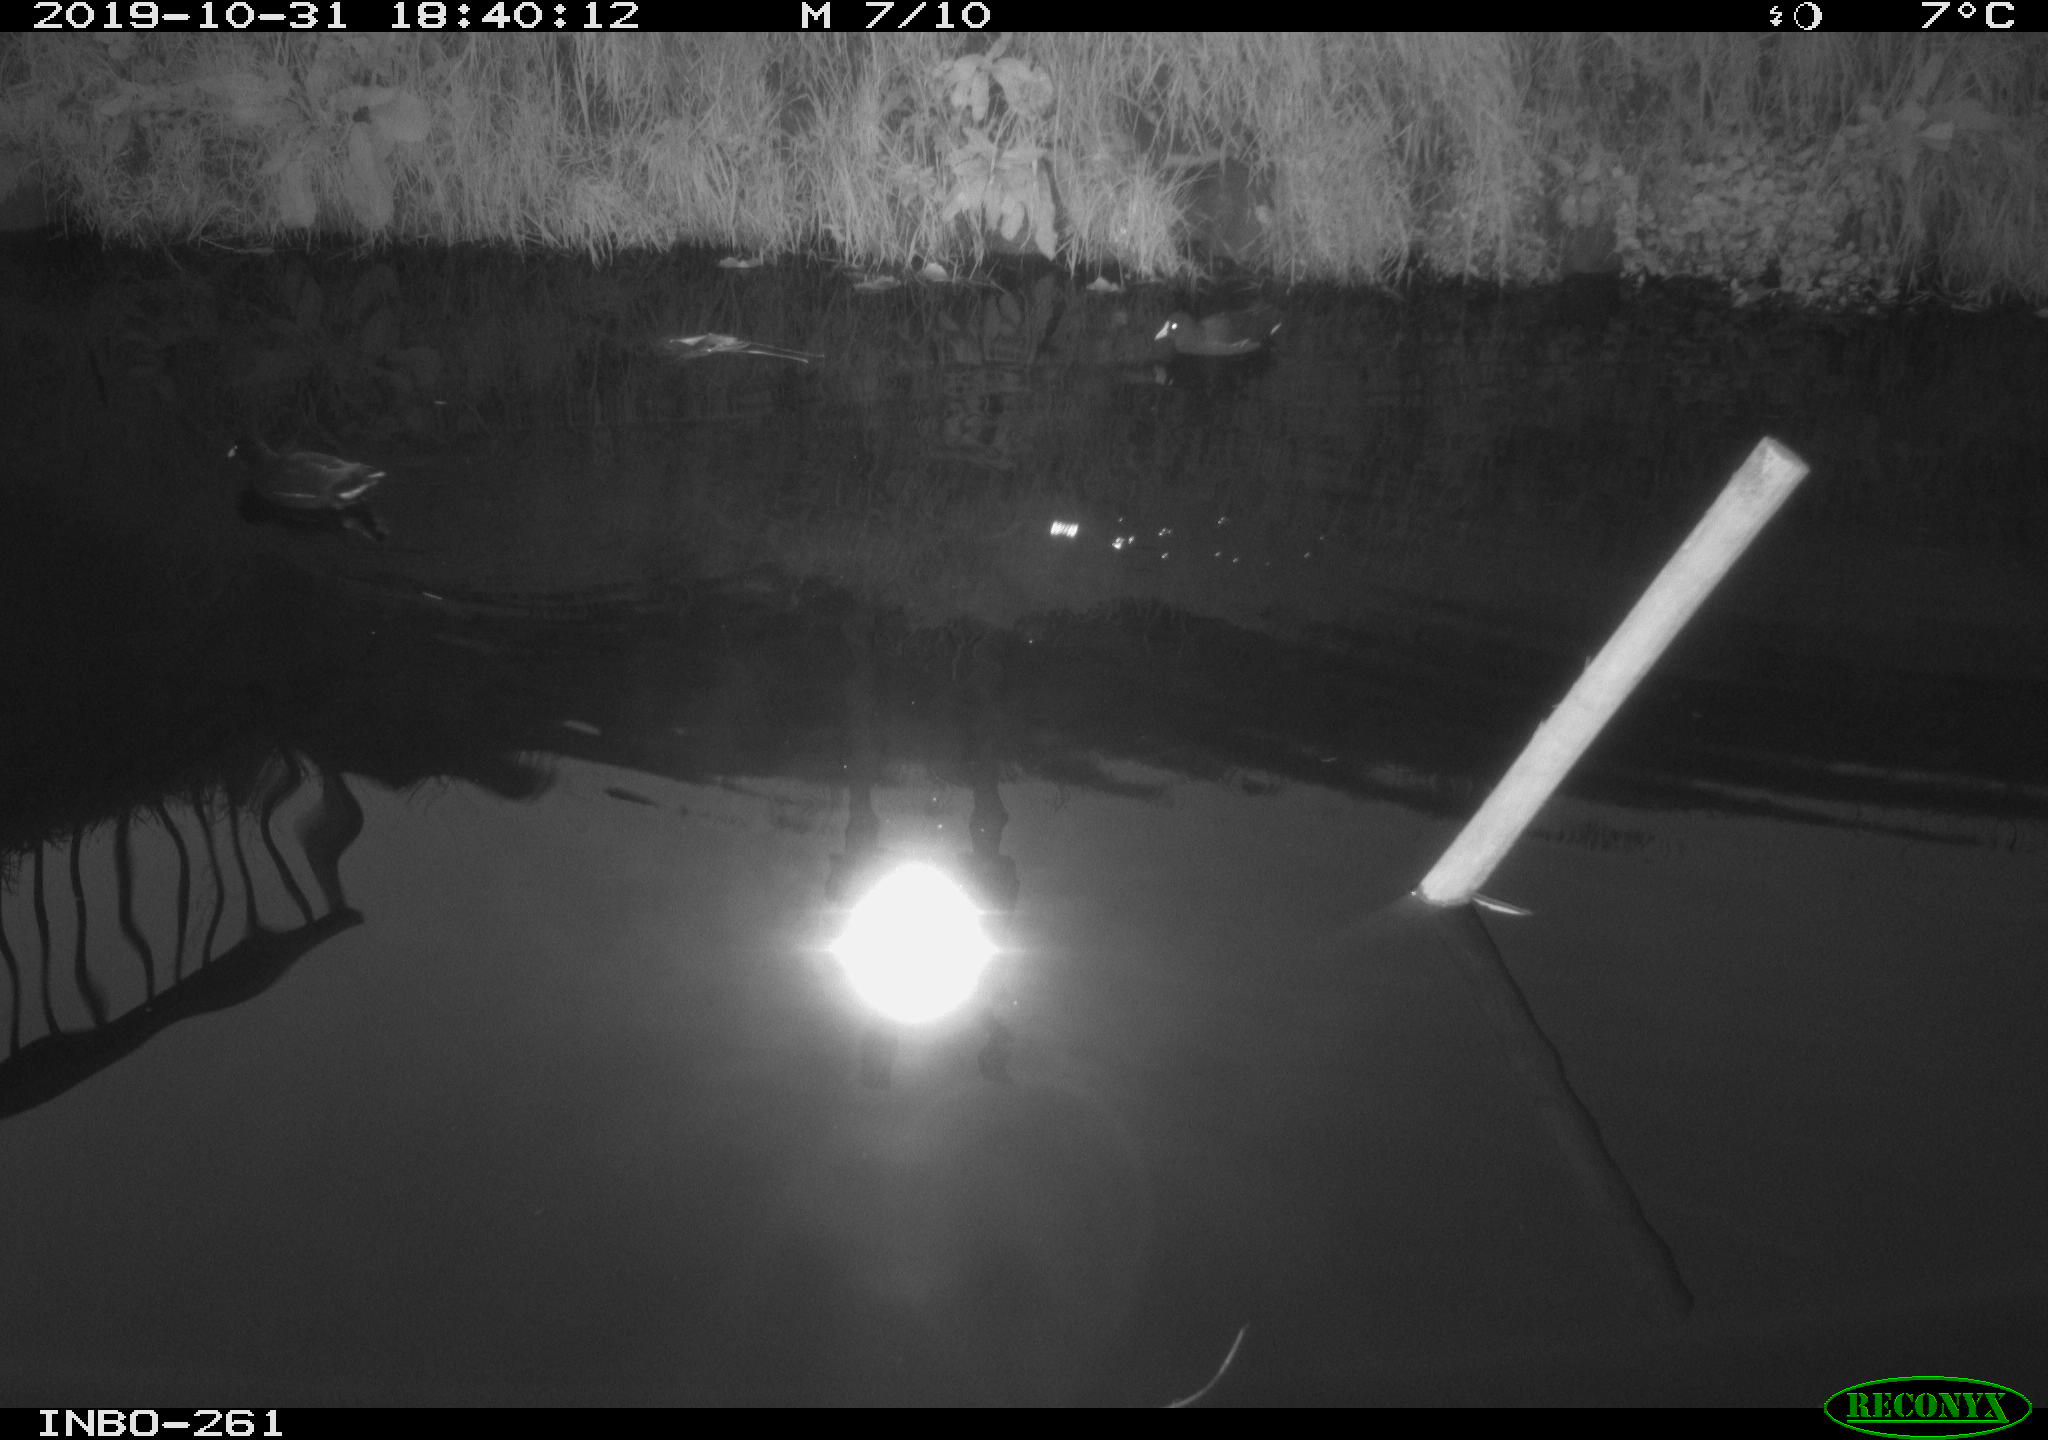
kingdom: Animalia
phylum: Chordata
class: Aves
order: Gruiformes
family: Rallidae
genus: Gallinula
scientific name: Gallinula chloropus
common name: Common moorhen
